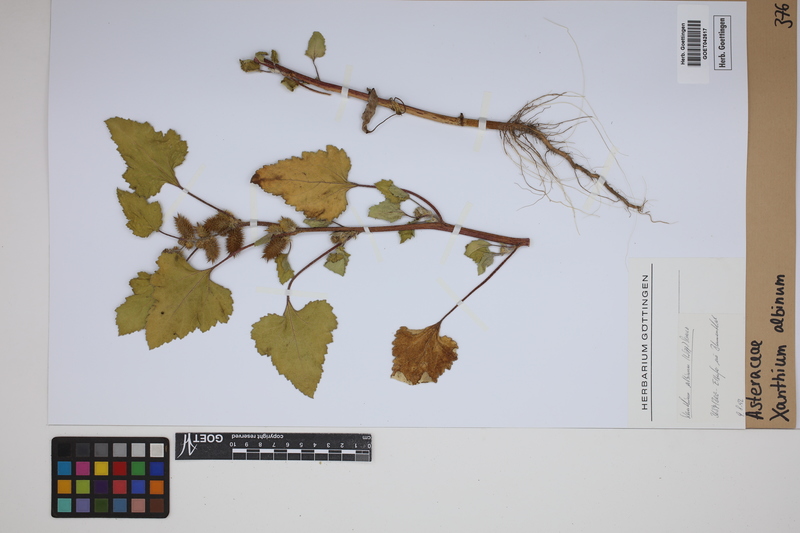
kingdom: Plantae
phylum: Tracheophyta
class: Magnoliopsida
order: Asterales
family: Asteraceae
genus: Xanthium
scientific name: Xanthium orientale
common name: Californian burr
